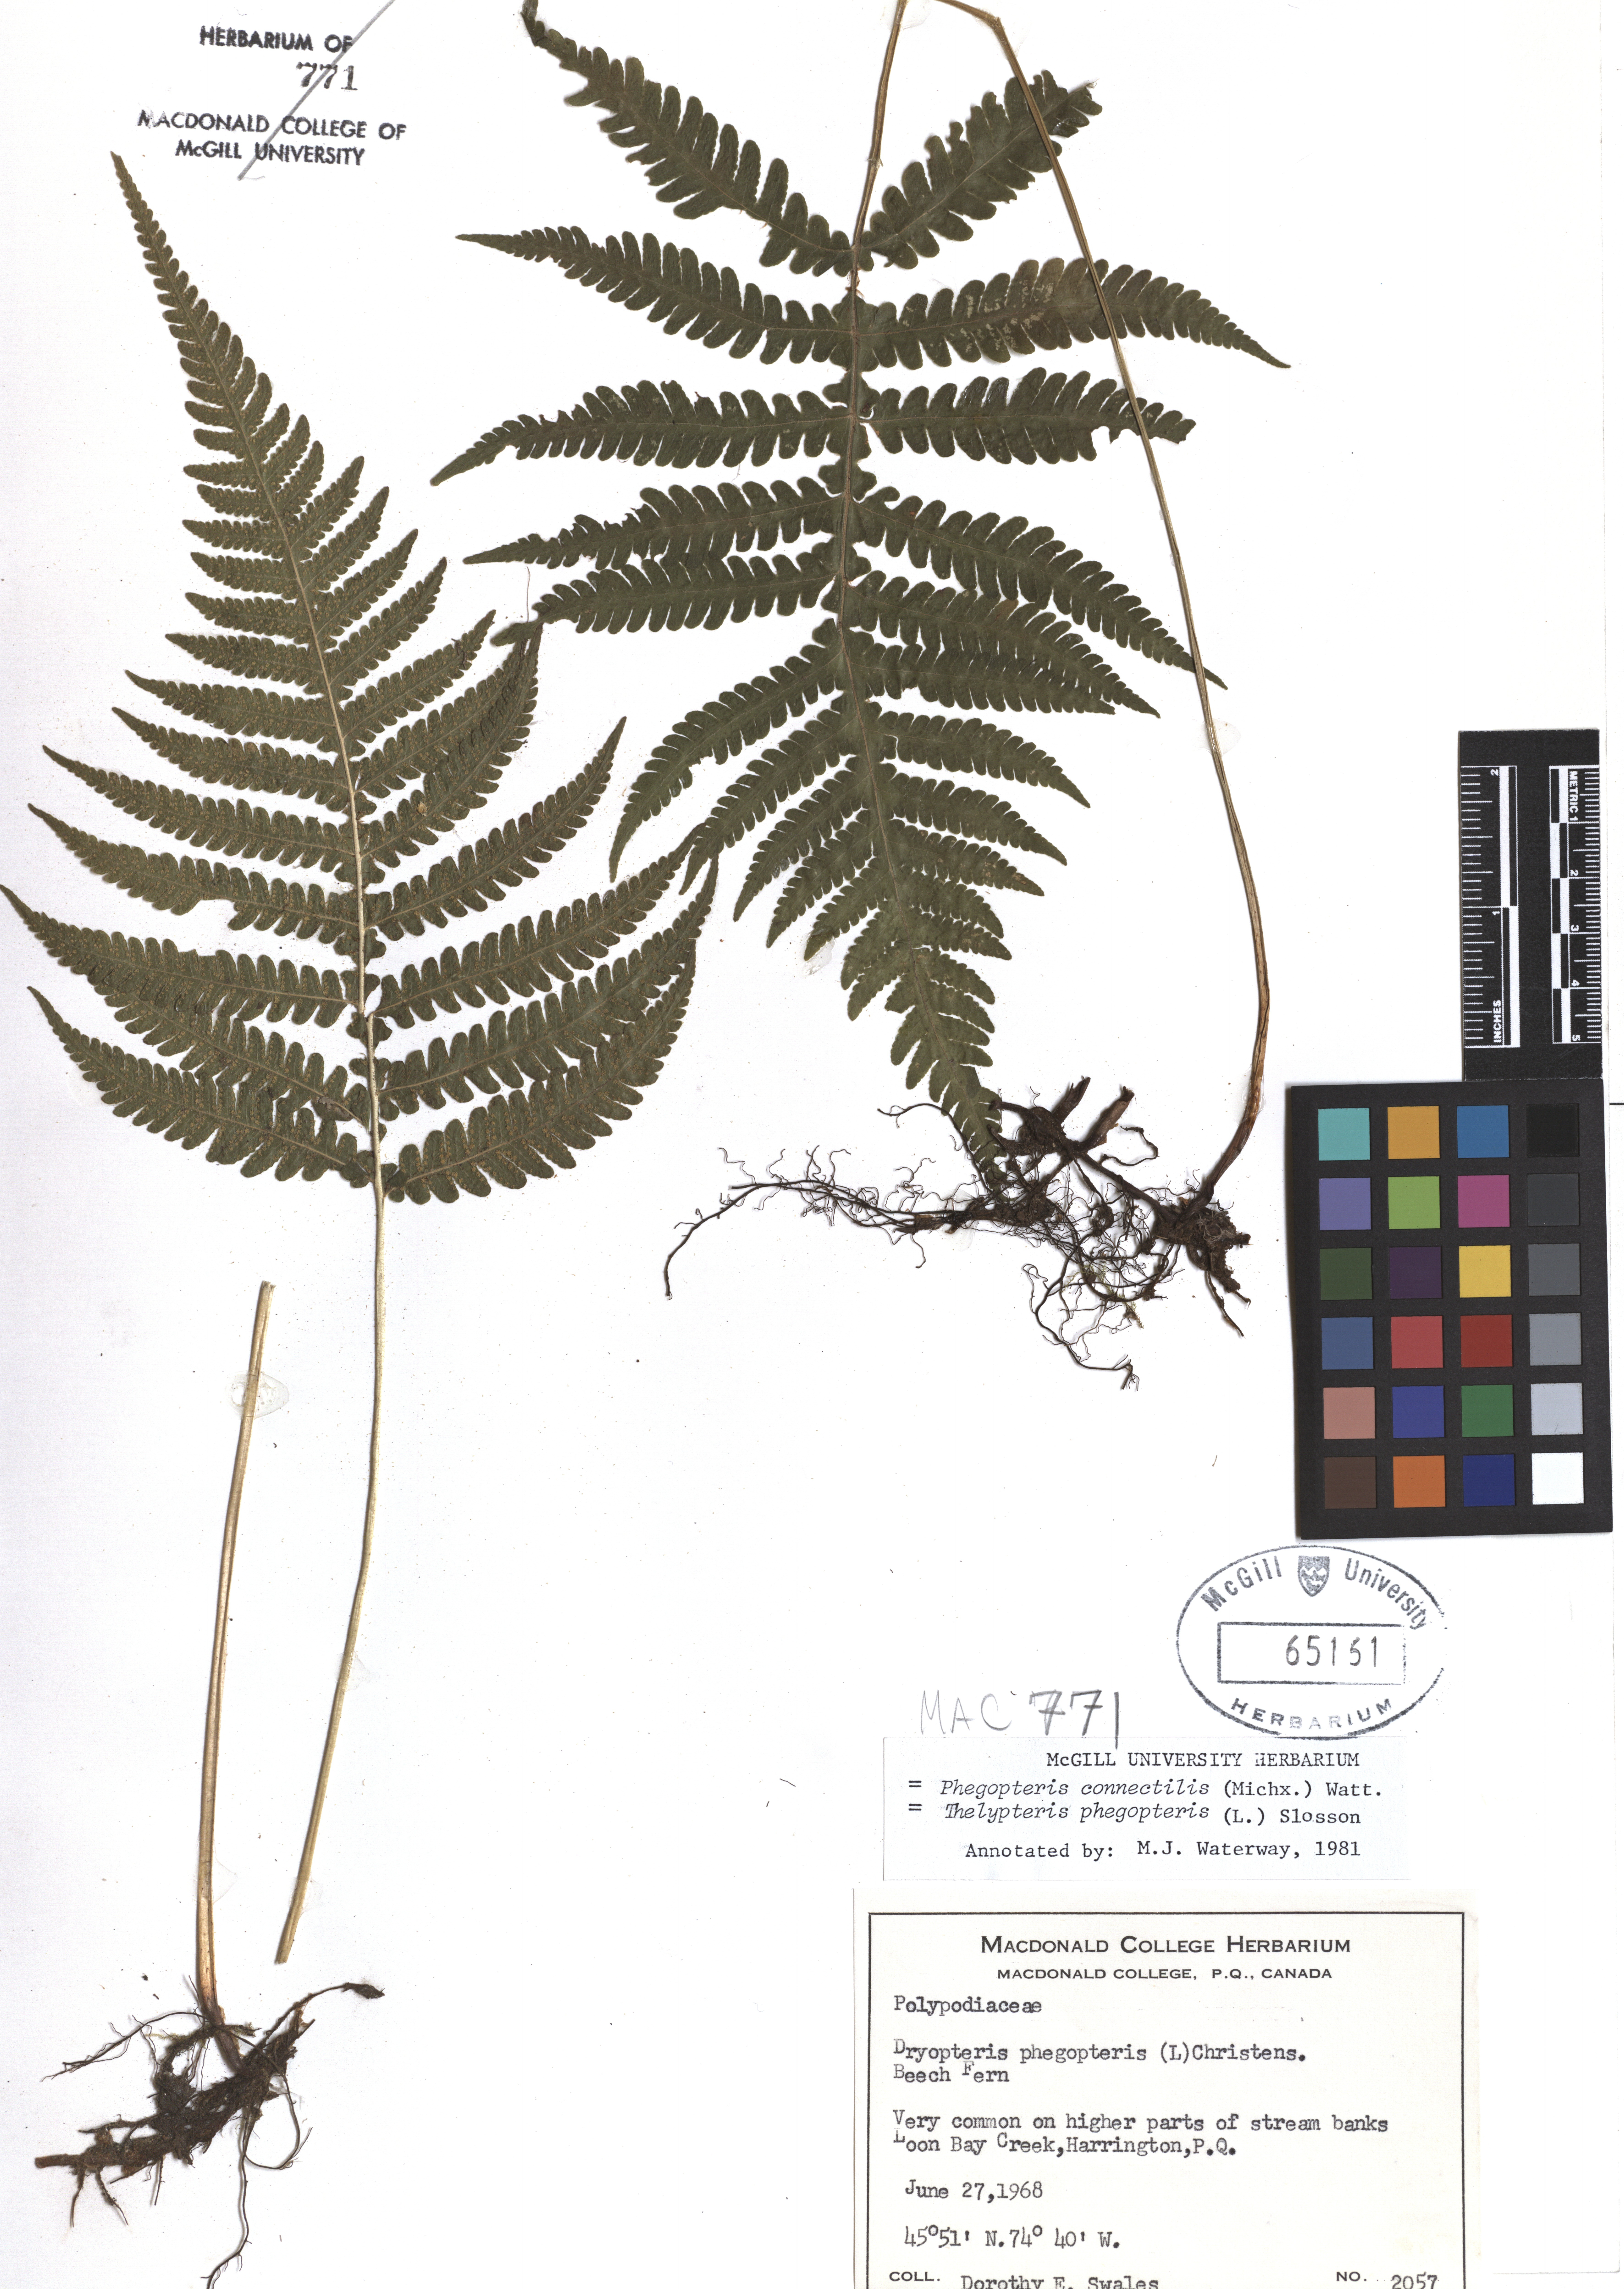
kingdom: Plantae
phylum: Tracheophyta
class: Polypodiopsida
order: Polypodiales
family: Thelypteridaceae
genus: Phegopteris
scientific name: Phegopteris connectilis
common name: Beech fern
